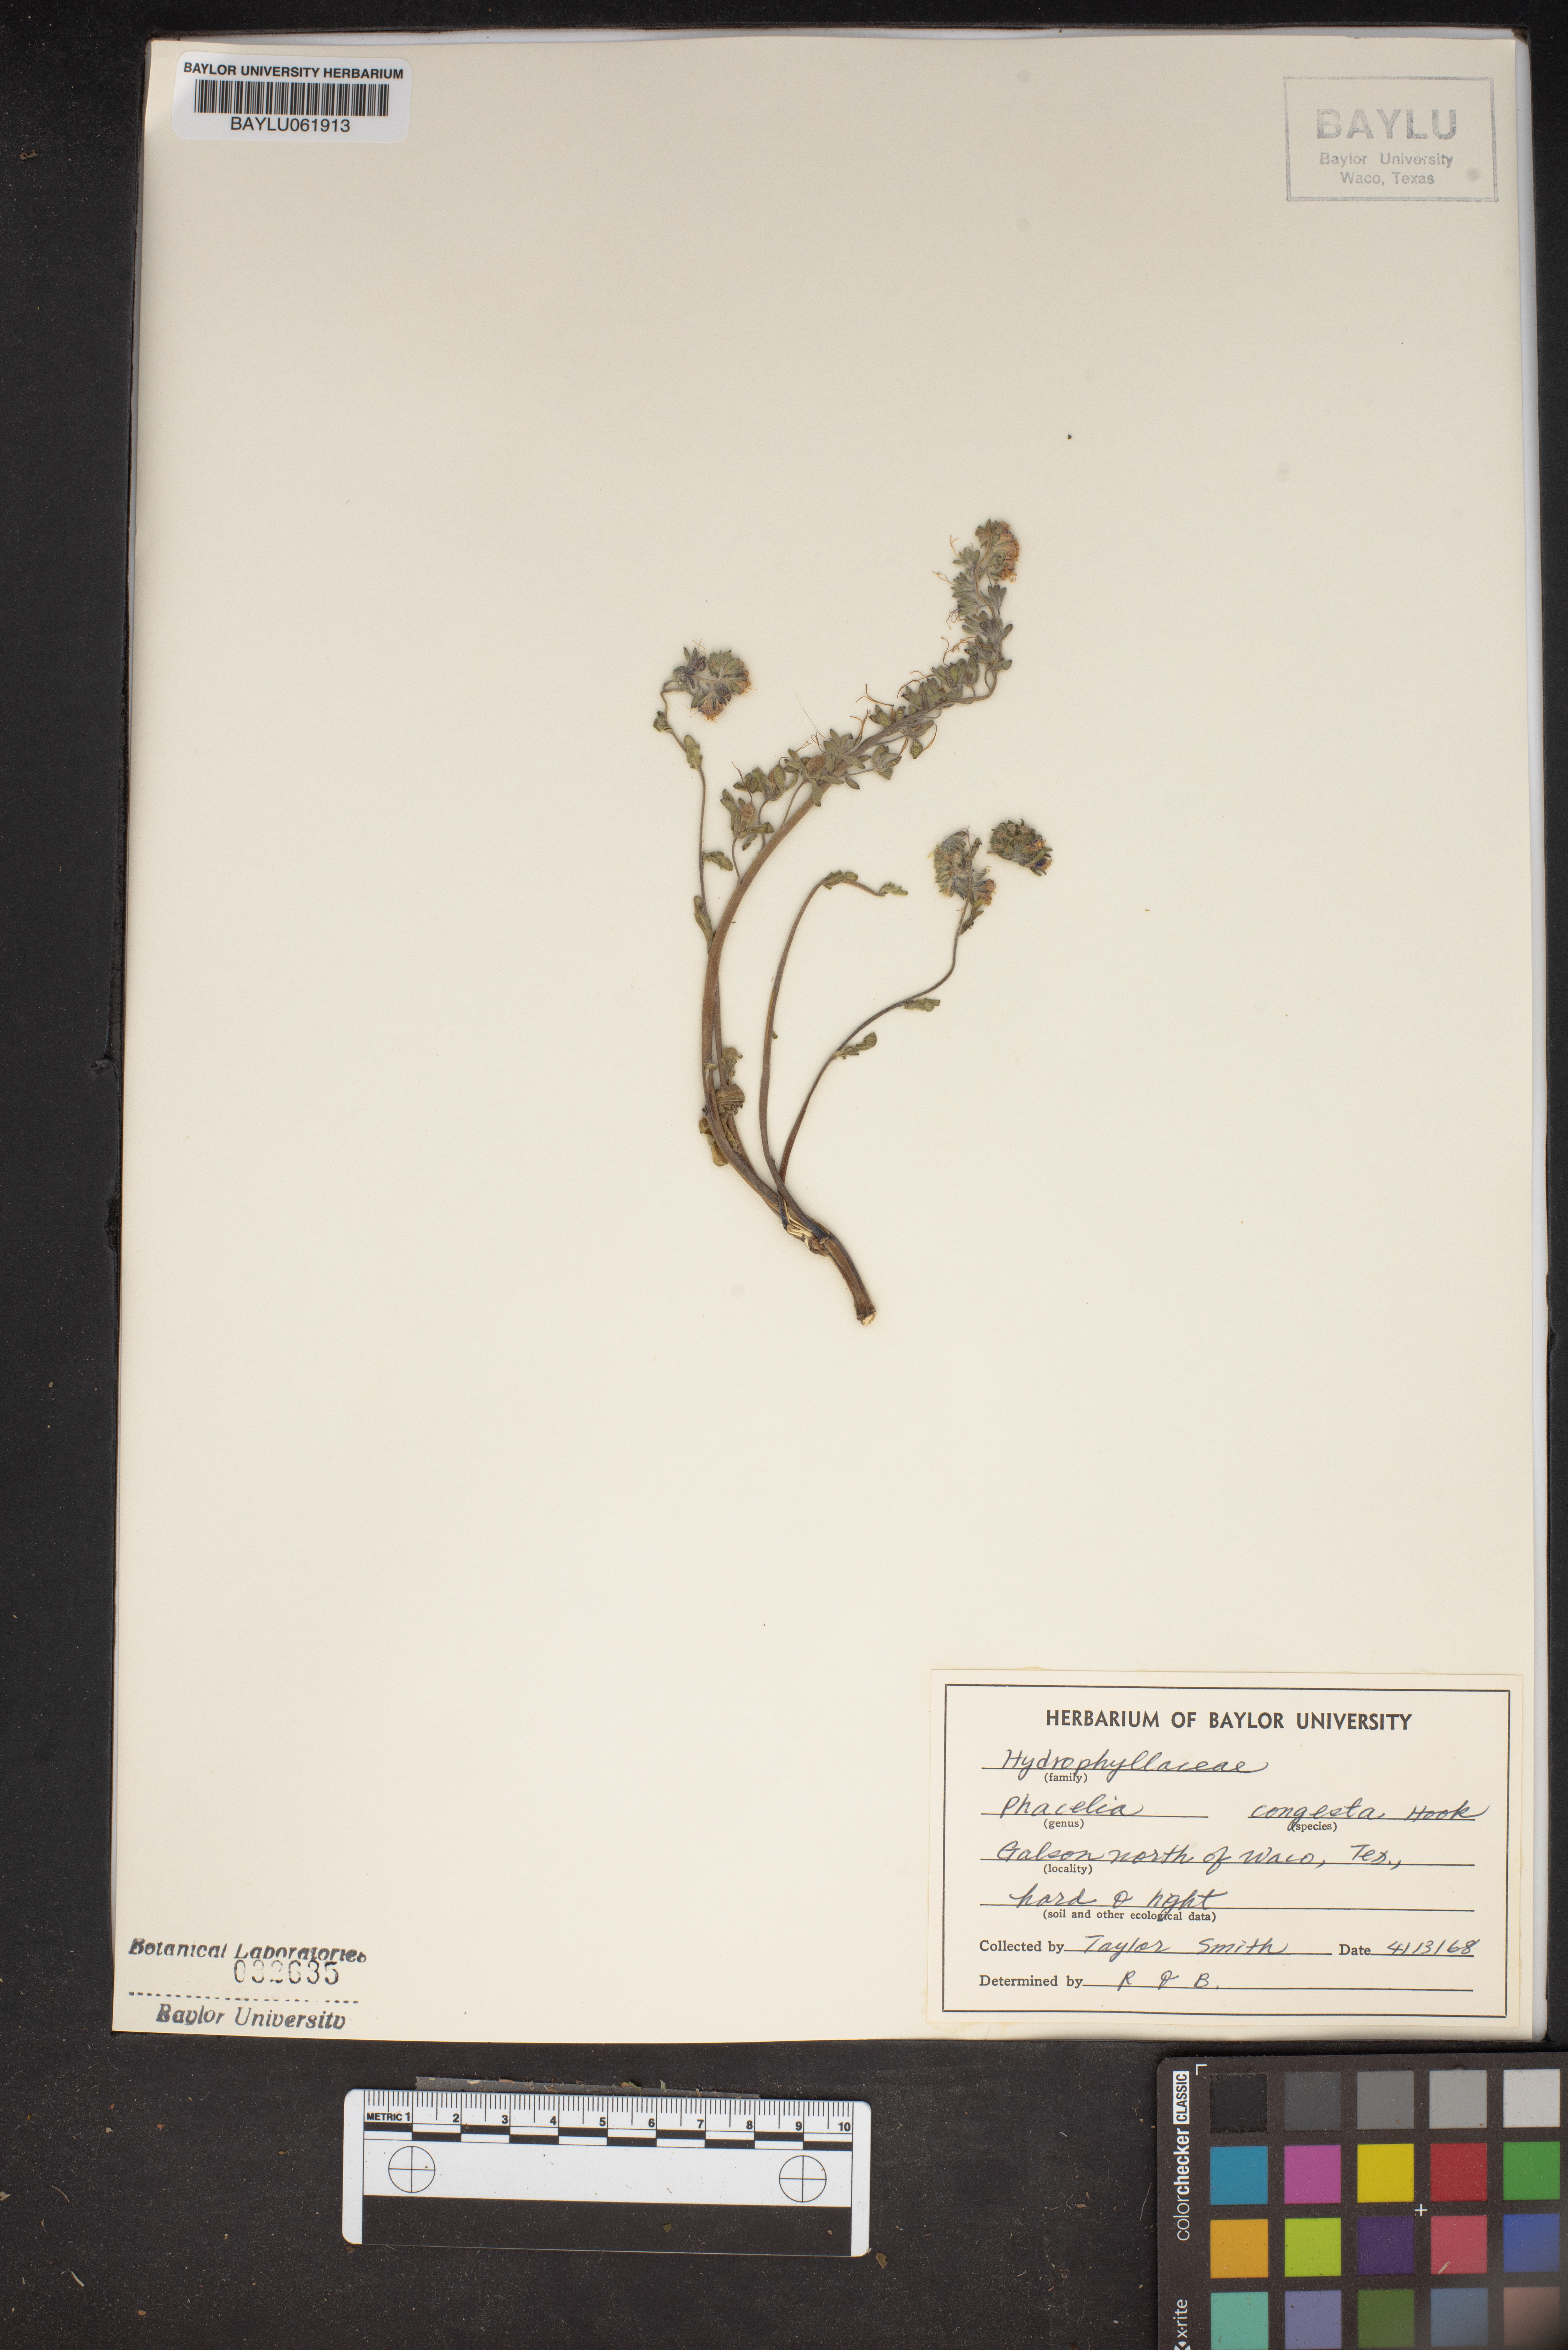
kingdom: Plantae
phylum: Tracheophyta
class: Magnoliopsida
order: Boraginales
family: Hydrophyllaceae
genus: Phacelia
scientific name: Phacelia congesta
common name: Blue curls
